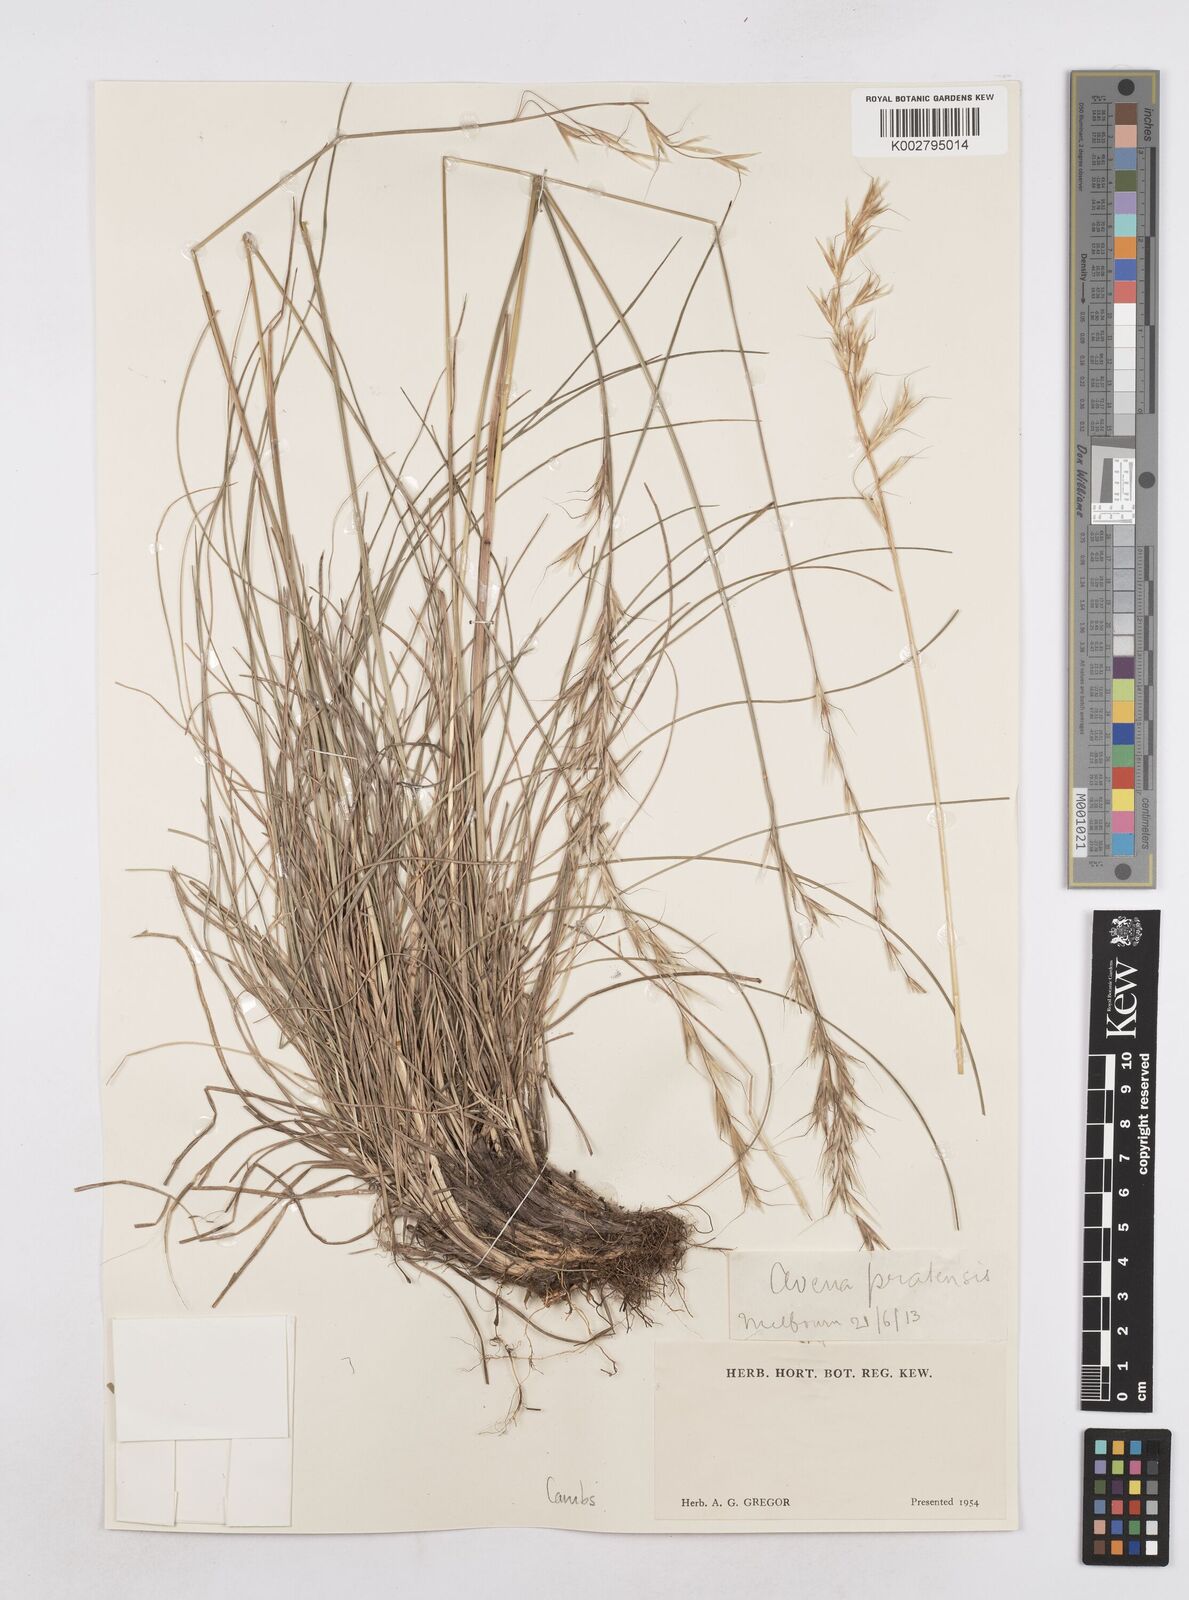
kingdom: Plantae
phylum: Tracheophyta
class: Liliopsida
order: Poales
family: Poaceae
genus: Helictochloa
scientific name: Helictochloa pratensis
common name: Meadow oat grass
